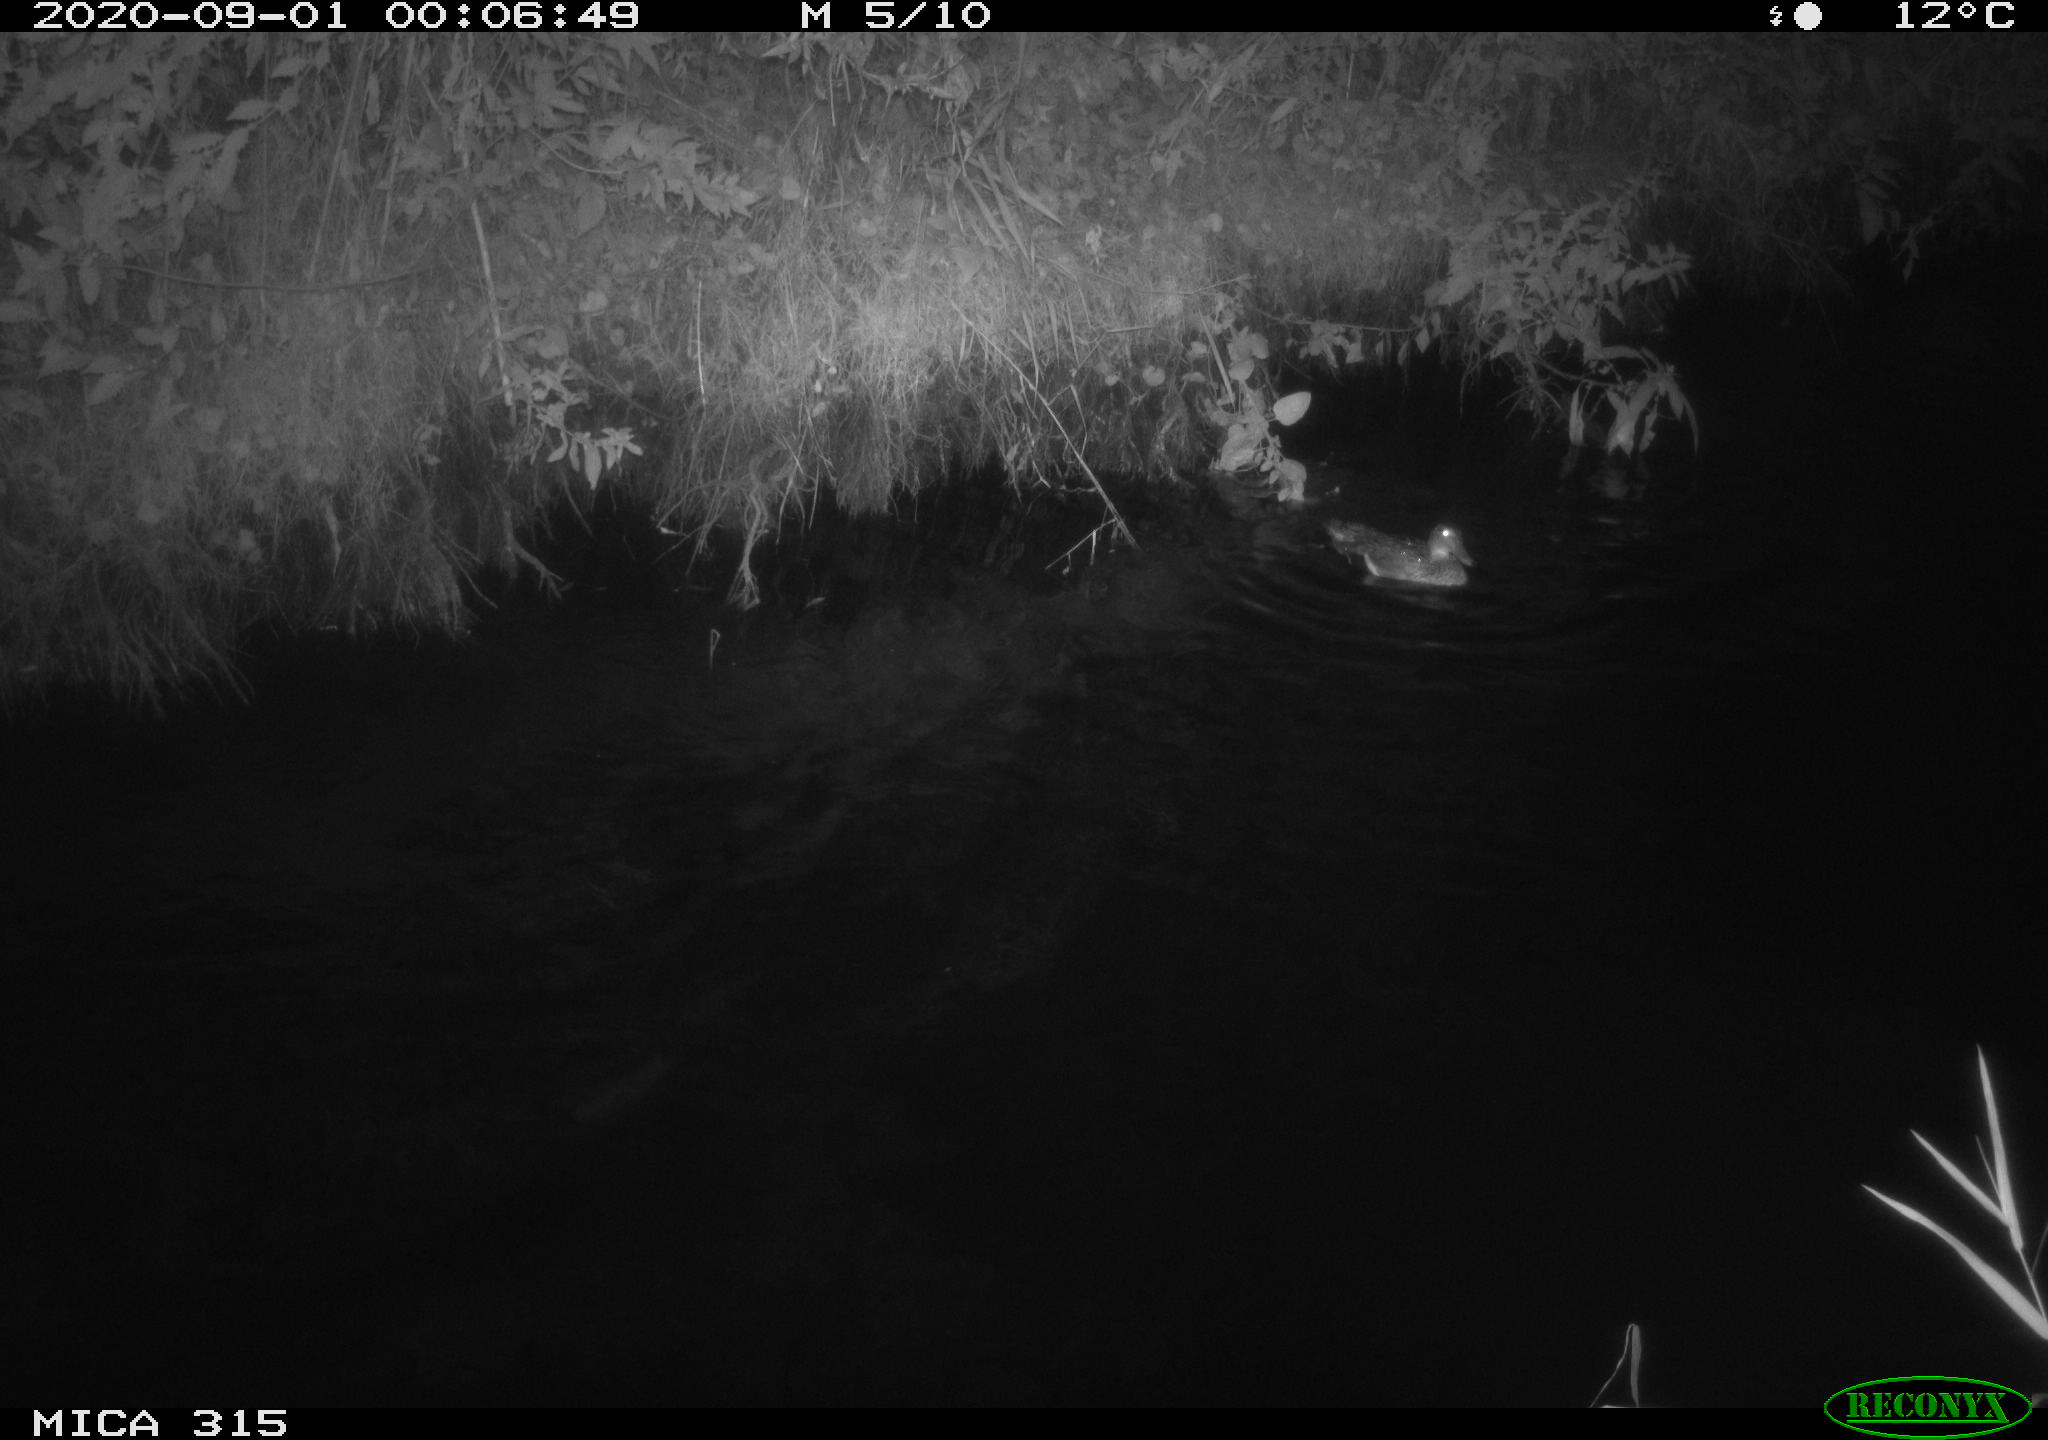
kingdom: Animalia
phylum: Chordata
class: Aves
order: Anseriformes
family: Anatidae
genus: Anas
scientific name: Anas platyrhynchos
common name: Mallard
